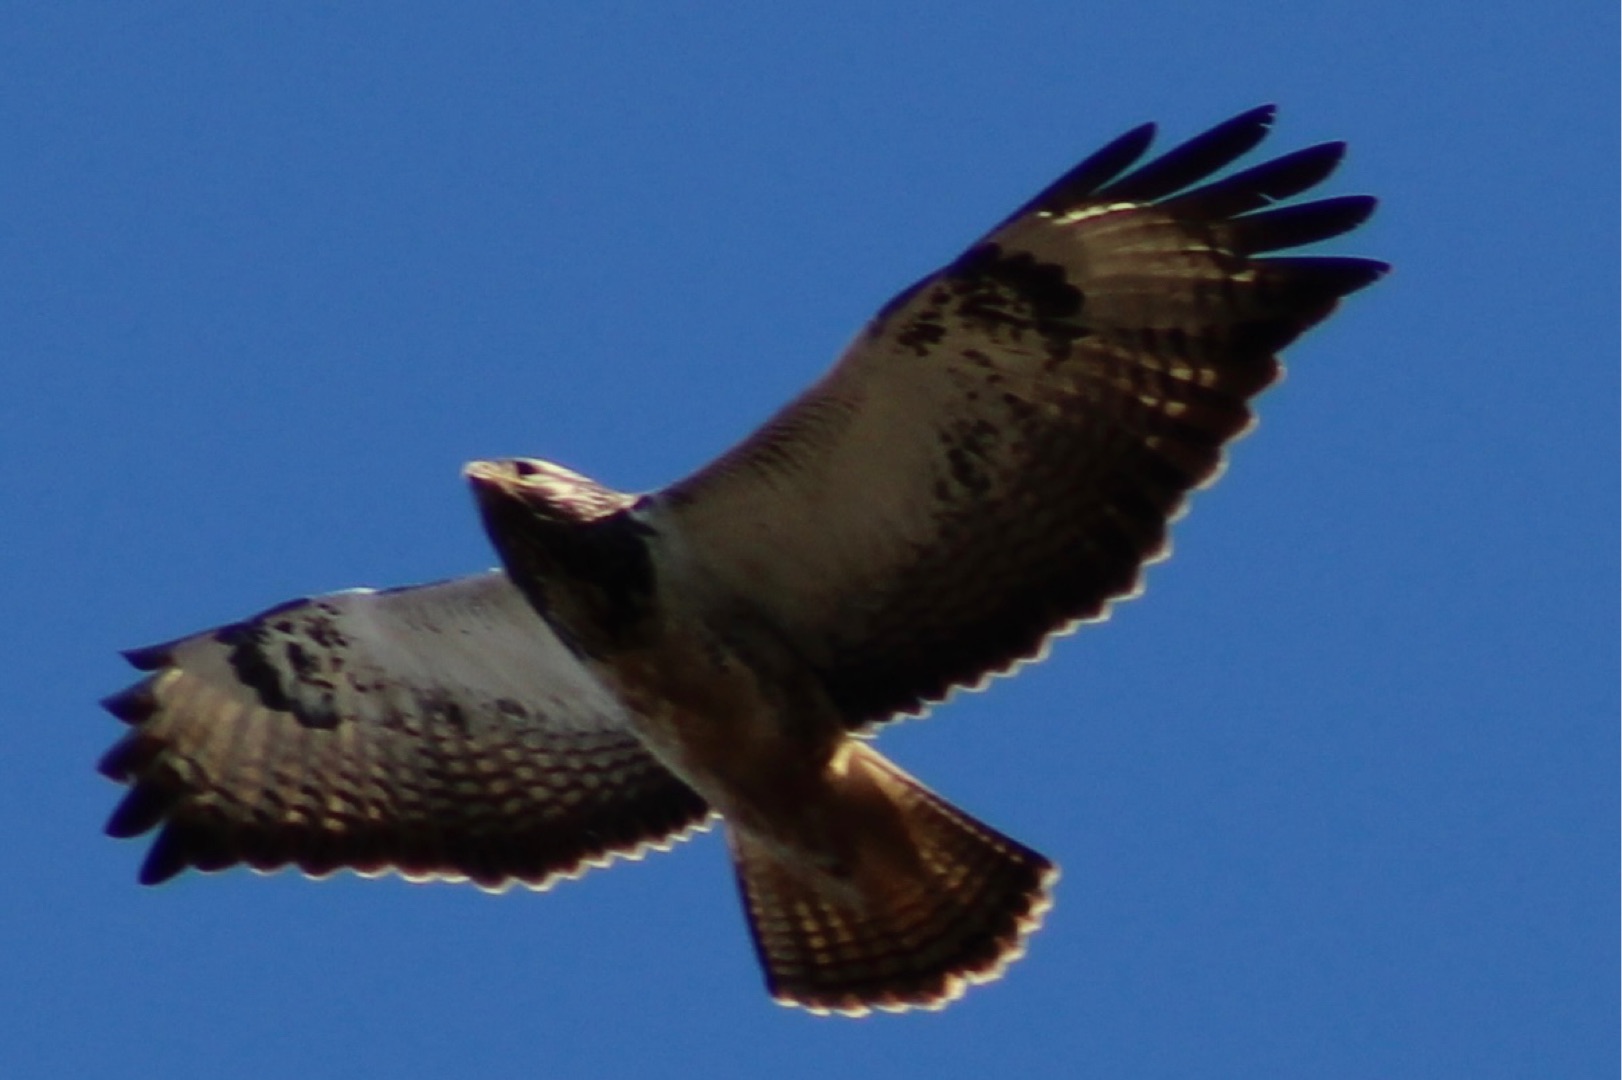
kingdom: Animalia
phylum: Chordata
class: Aves
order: Accipitriformes
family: Accipitridae
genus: Buteo
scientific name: Buteo buteo
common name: Musvåge
